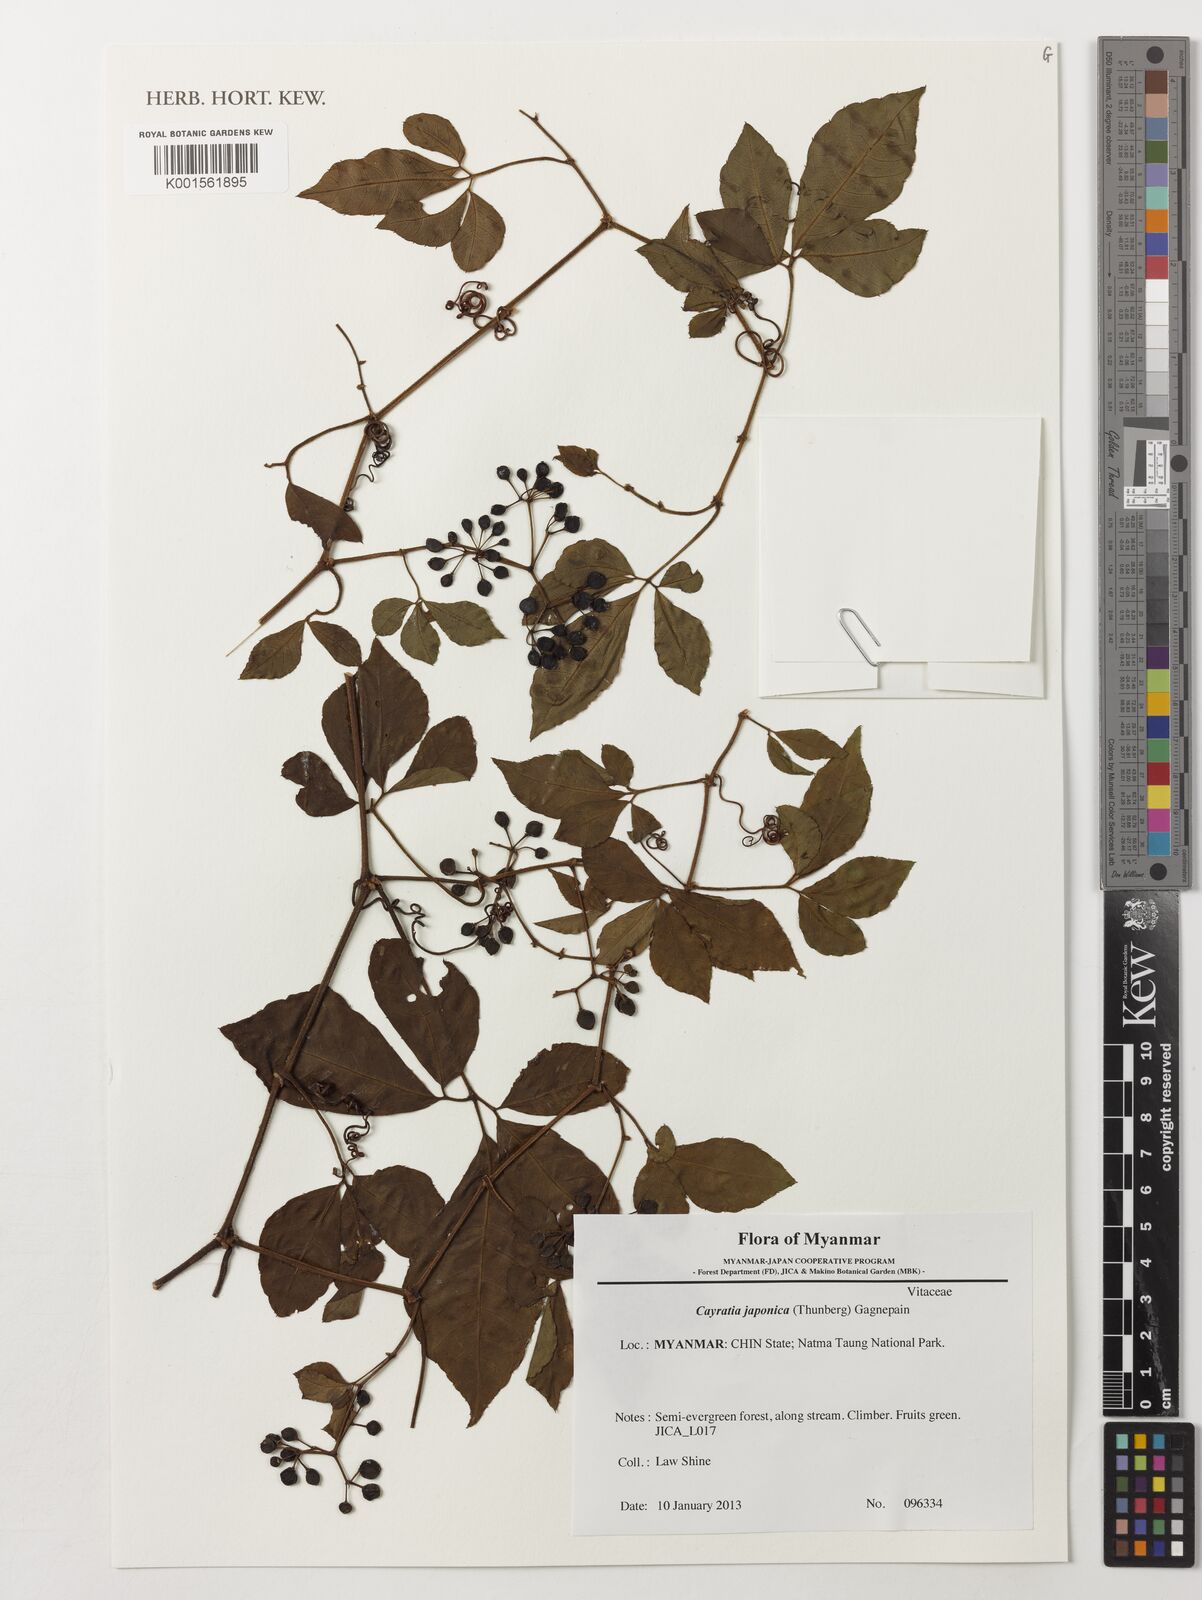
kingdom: Plantae
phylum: Tracheophyta
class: Magnoliopsida
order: Vitales
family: Vitaceae
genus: Causonis
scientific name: Causonis japonica
